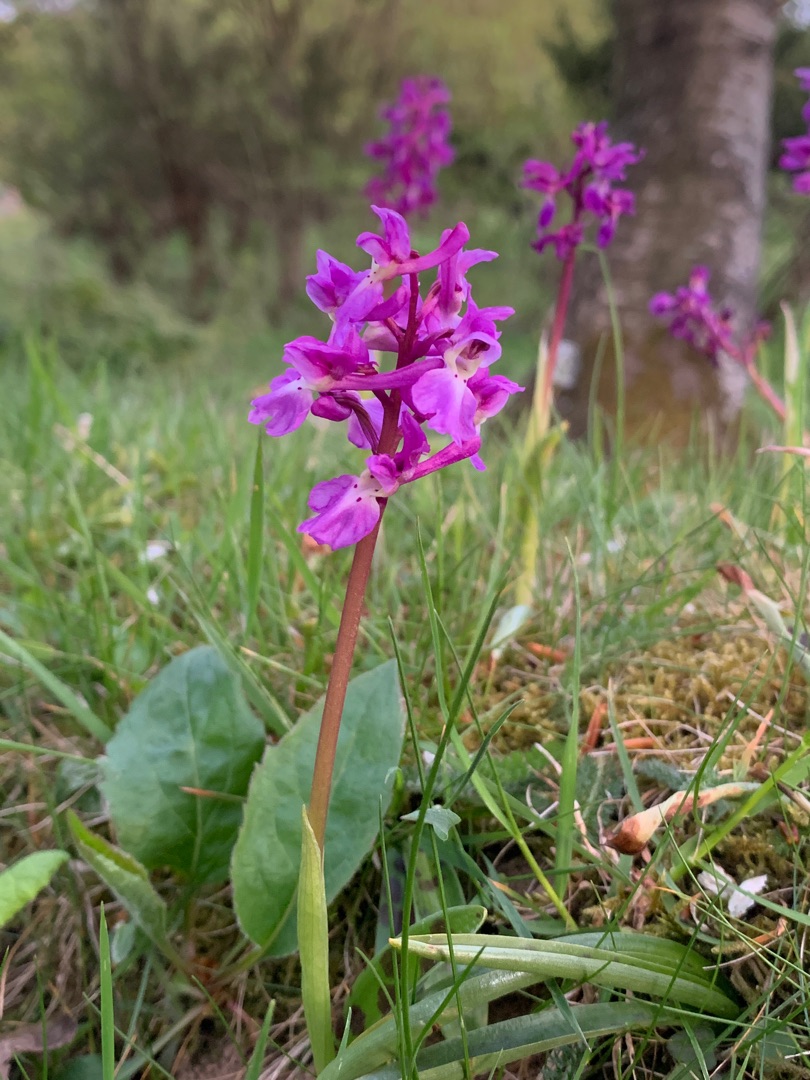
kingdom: Plantae
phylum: Tracheophyta
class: Liliopsida
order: Asparagales
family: Orchidaceae
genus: Orchis
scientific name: Orchis mascula
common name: Tyndakset gøgeurt
